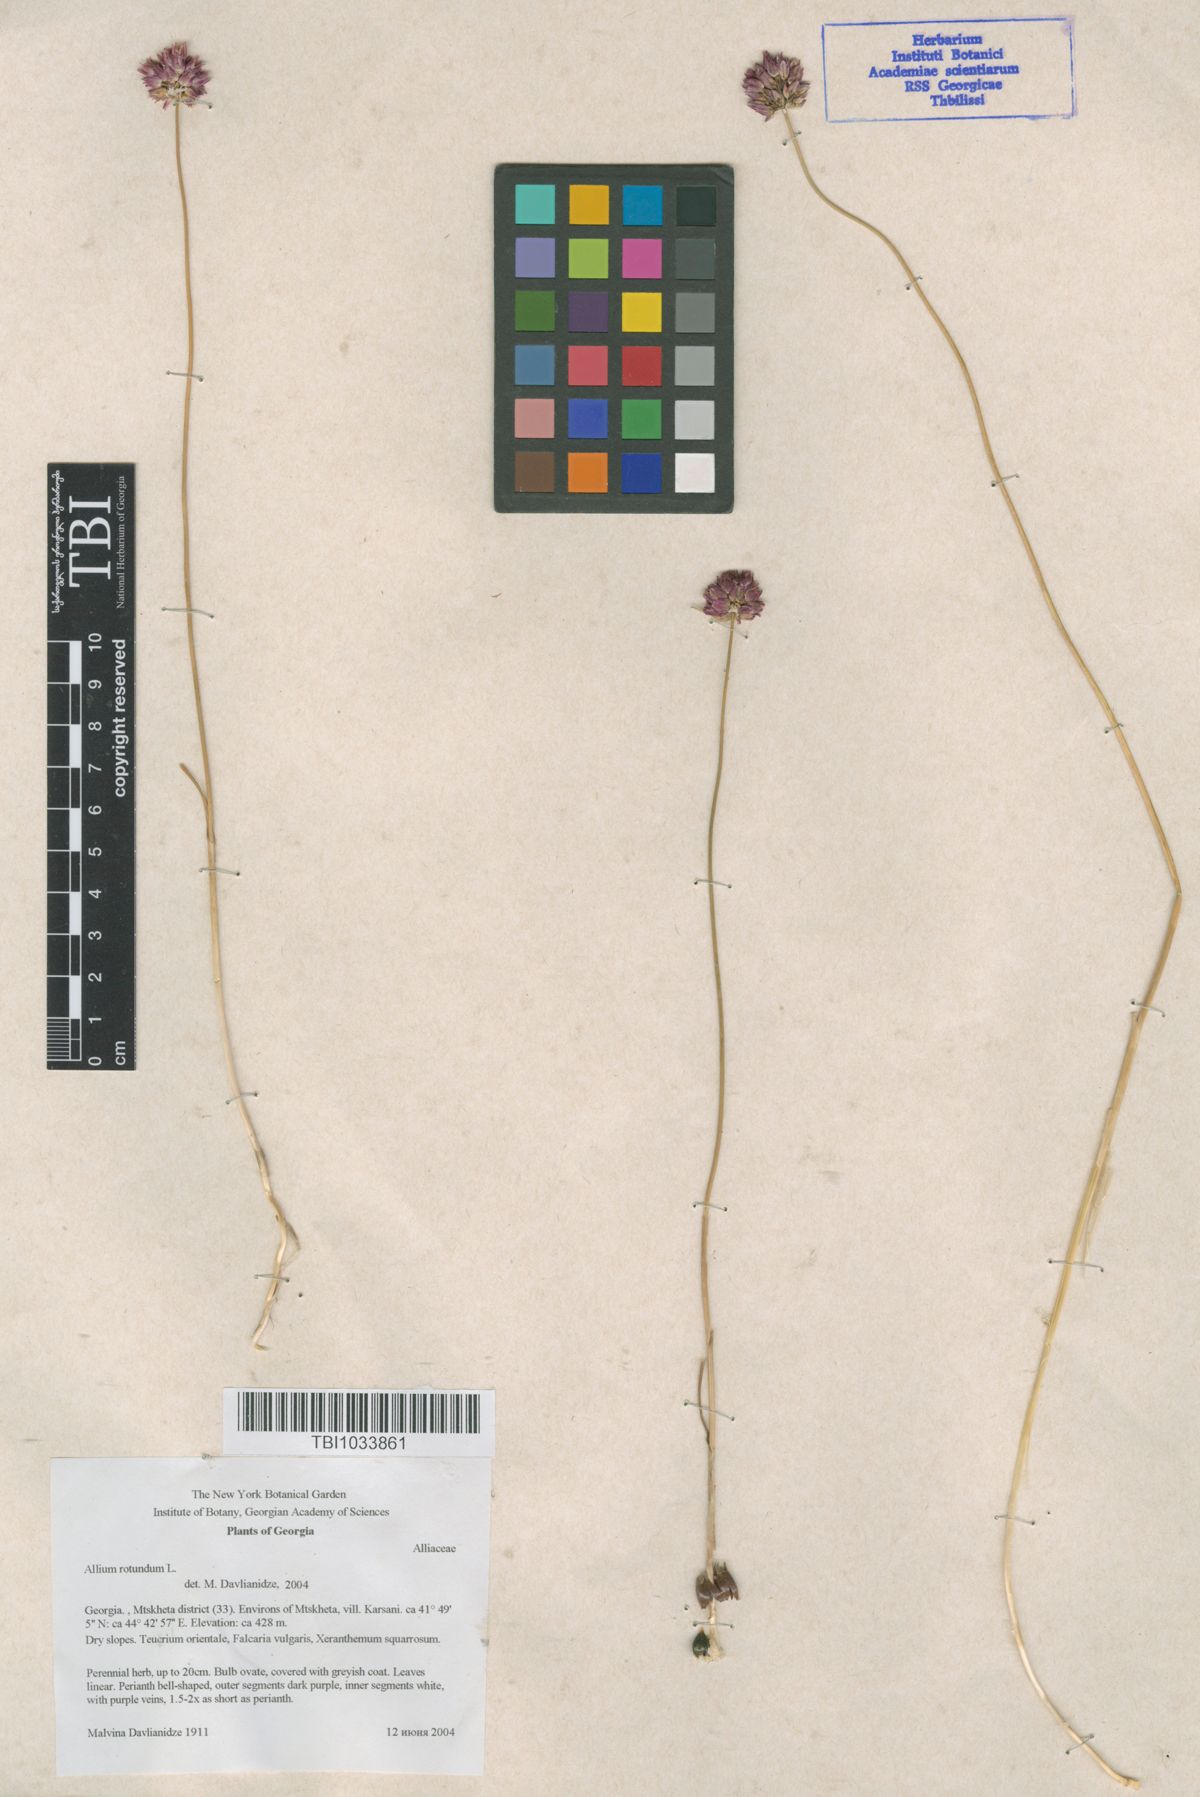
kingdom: Plantae
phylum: Tracheophyta
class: Liliopsida
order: Asparagales
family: Amaryllidaceae
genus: Allium
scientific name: Allium rotundum
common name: Sand leek
